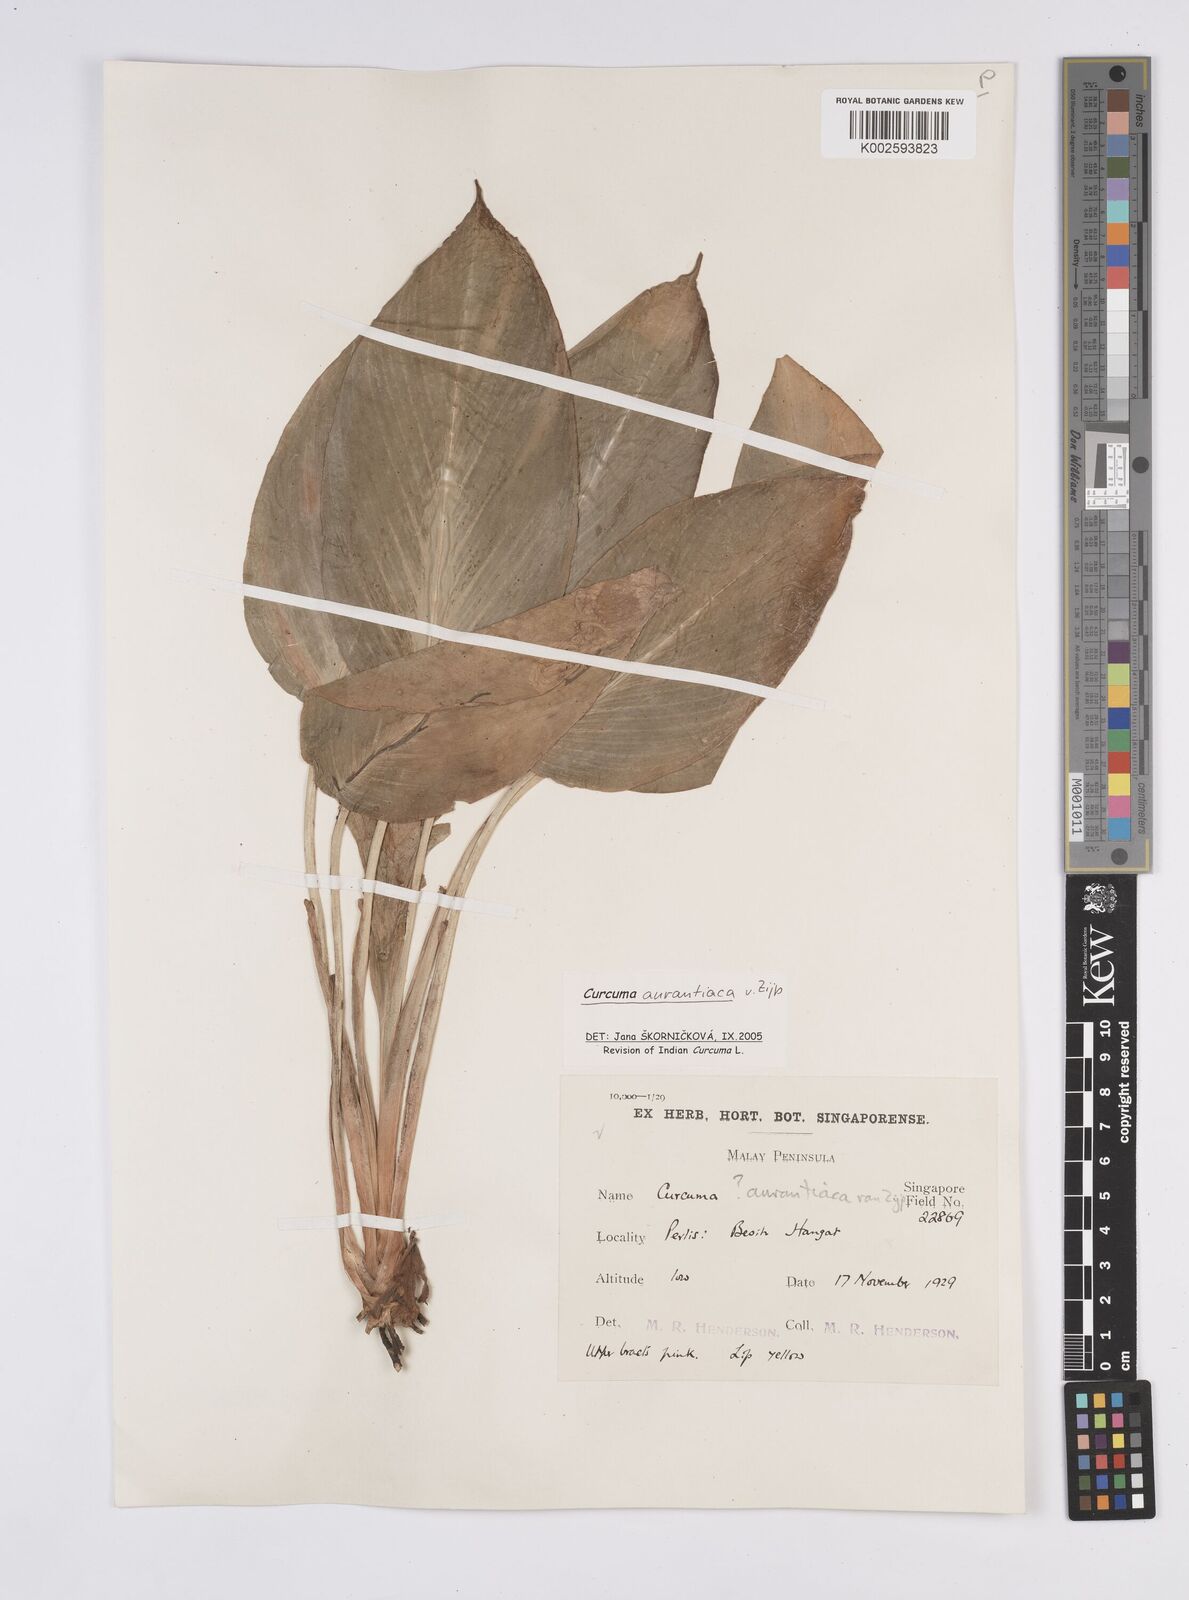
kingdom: Plantae
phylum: Tracheophyta
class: Liliopsida
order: Zingiberales
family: Zingiberaceae
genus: Curcuma
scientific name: Curcuma aurantiaca
